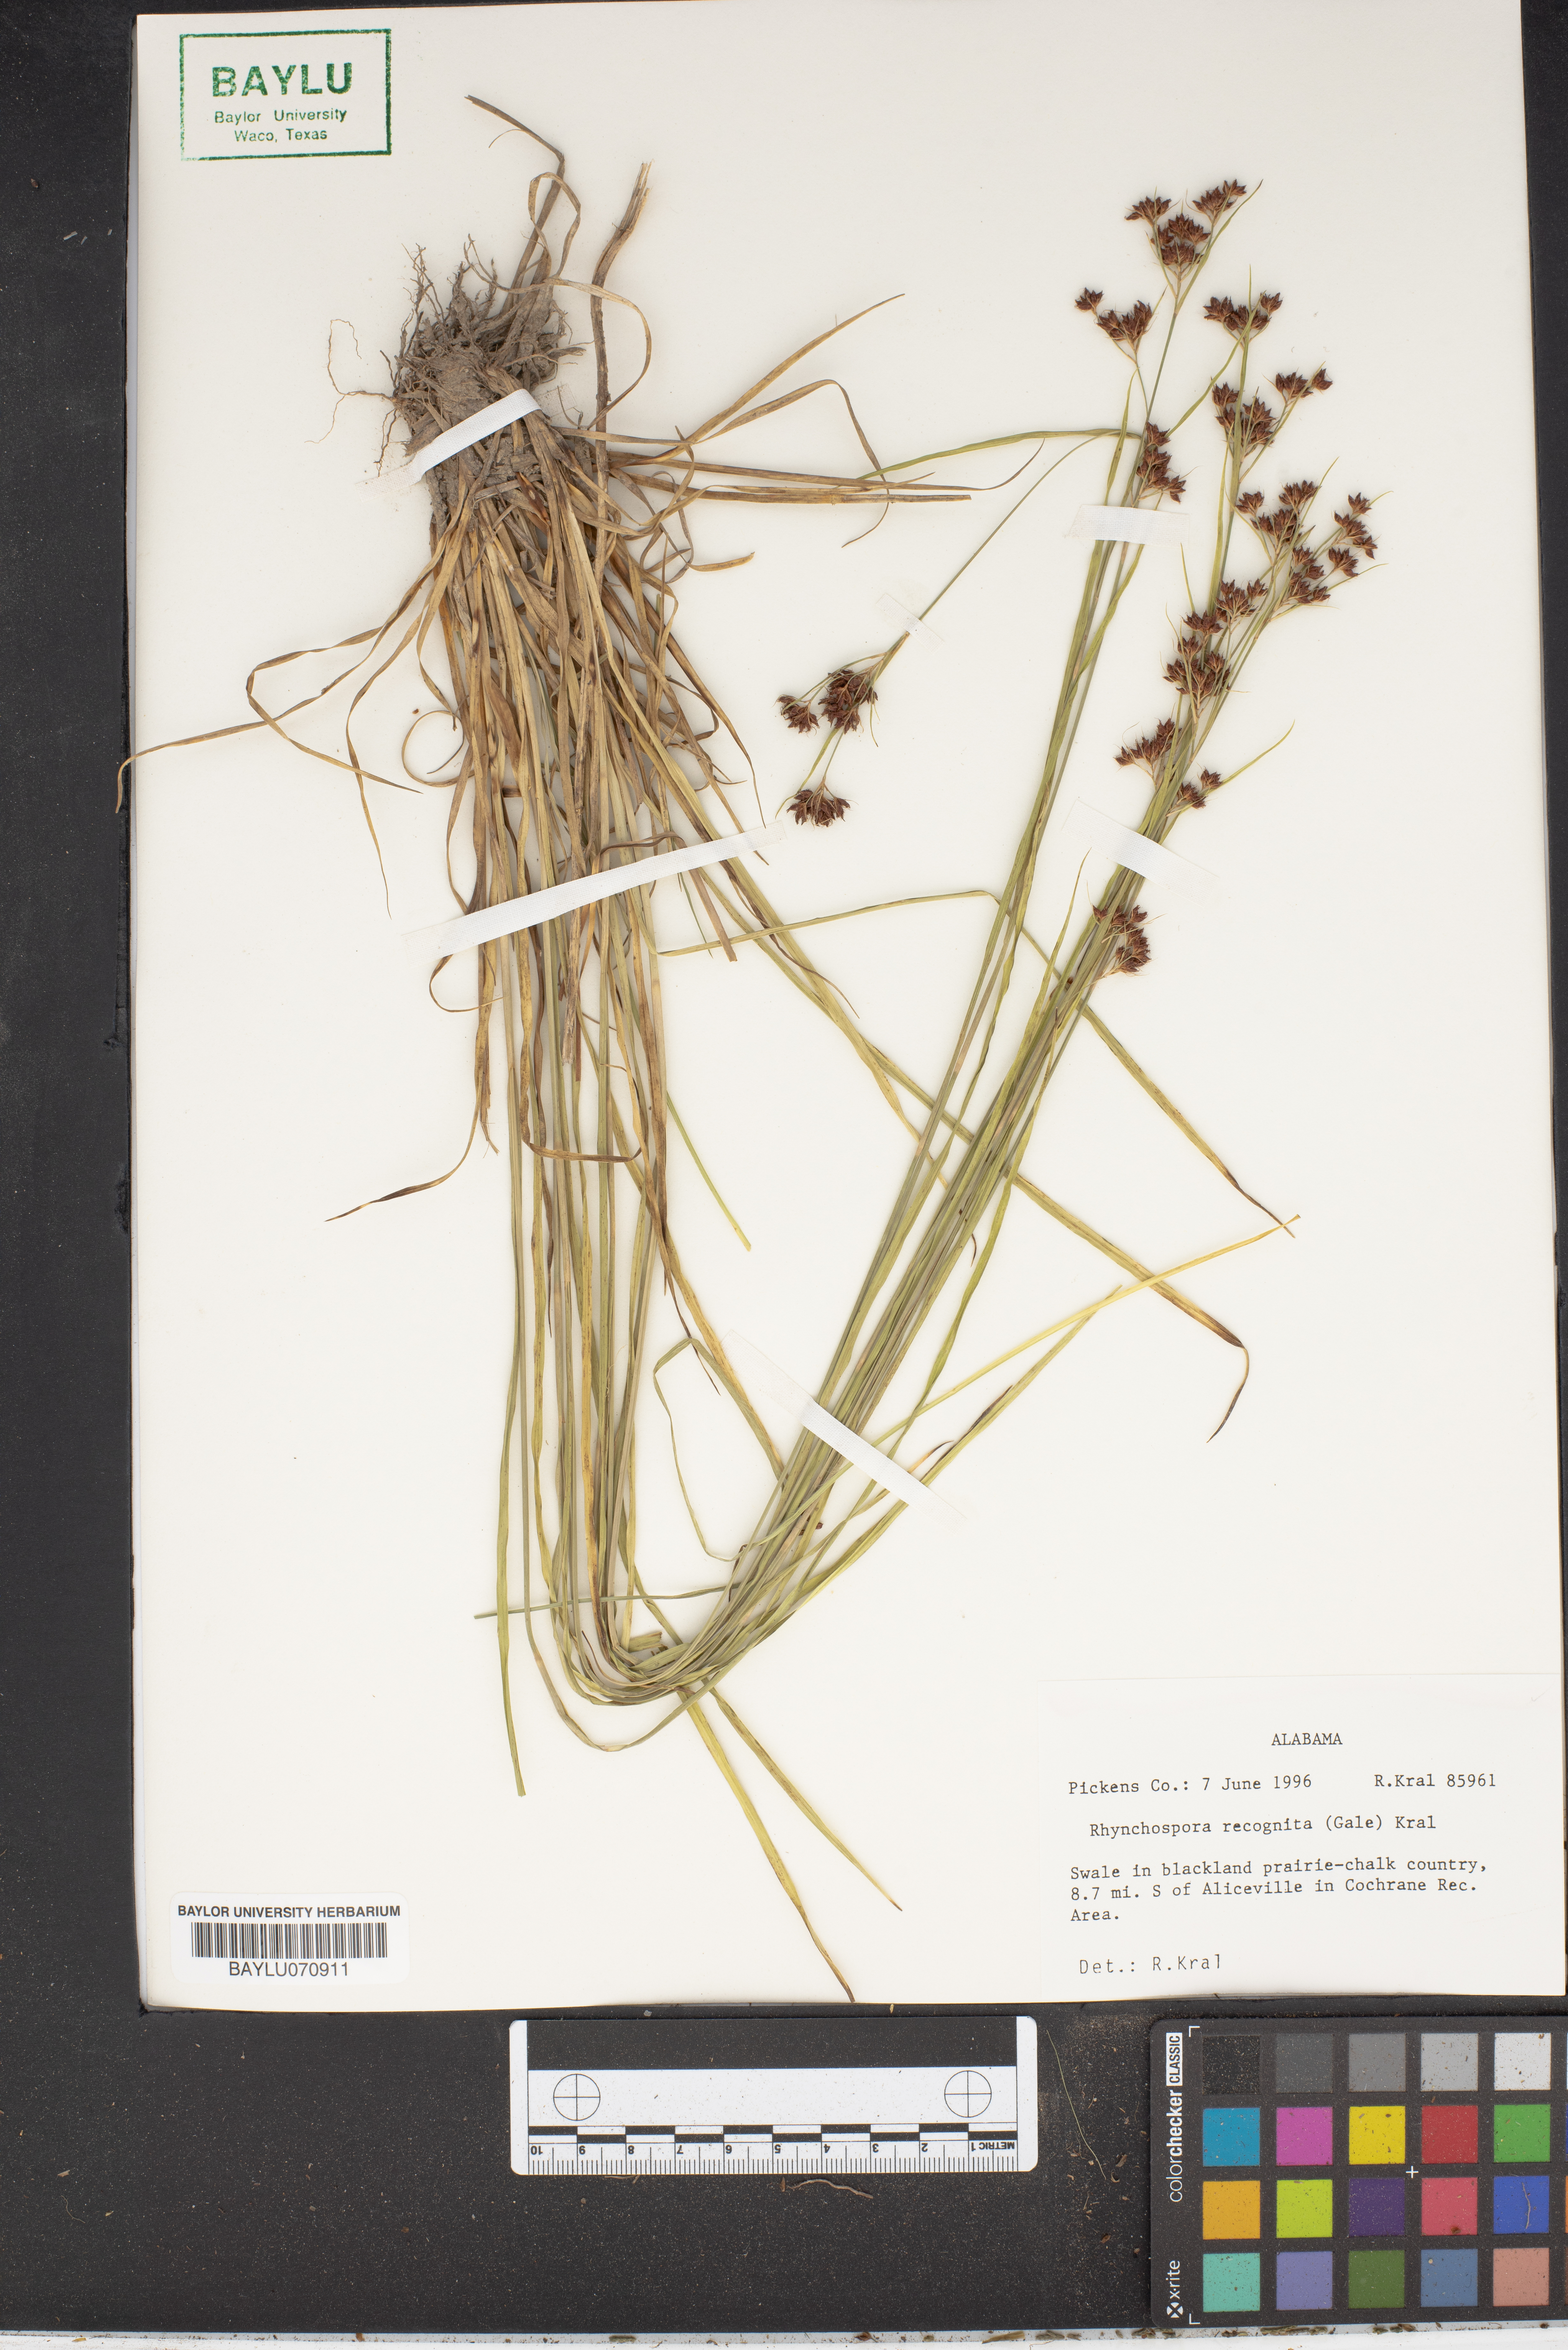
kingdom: Plantae
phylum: Tracheophyta
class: Liliopsida
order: Poales
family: Cyperaceae
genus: Rhynchospora
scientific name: Rhynchospora recognita
